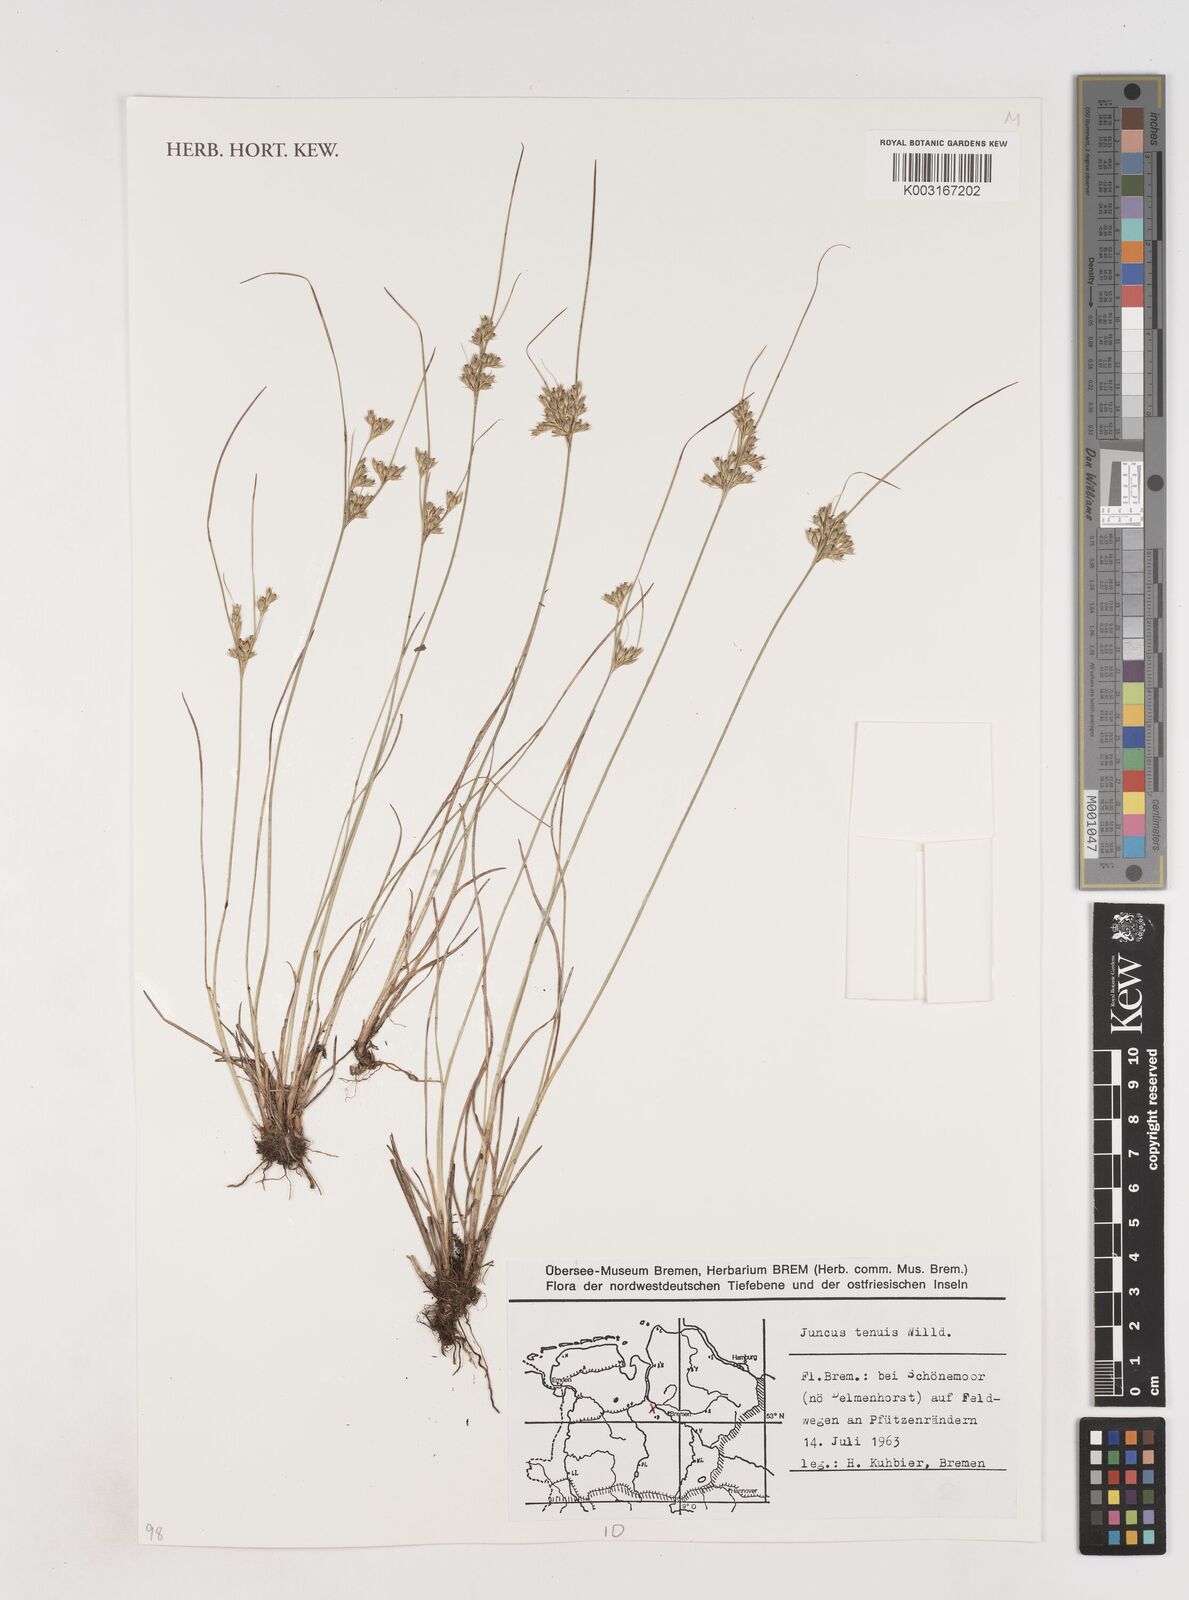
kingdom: Plantae
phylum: Tracheophyta
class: Liliopsida
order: Poales
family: Juncaceae
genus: Juncus
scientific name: Juncus tenuis
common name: Slender rush
